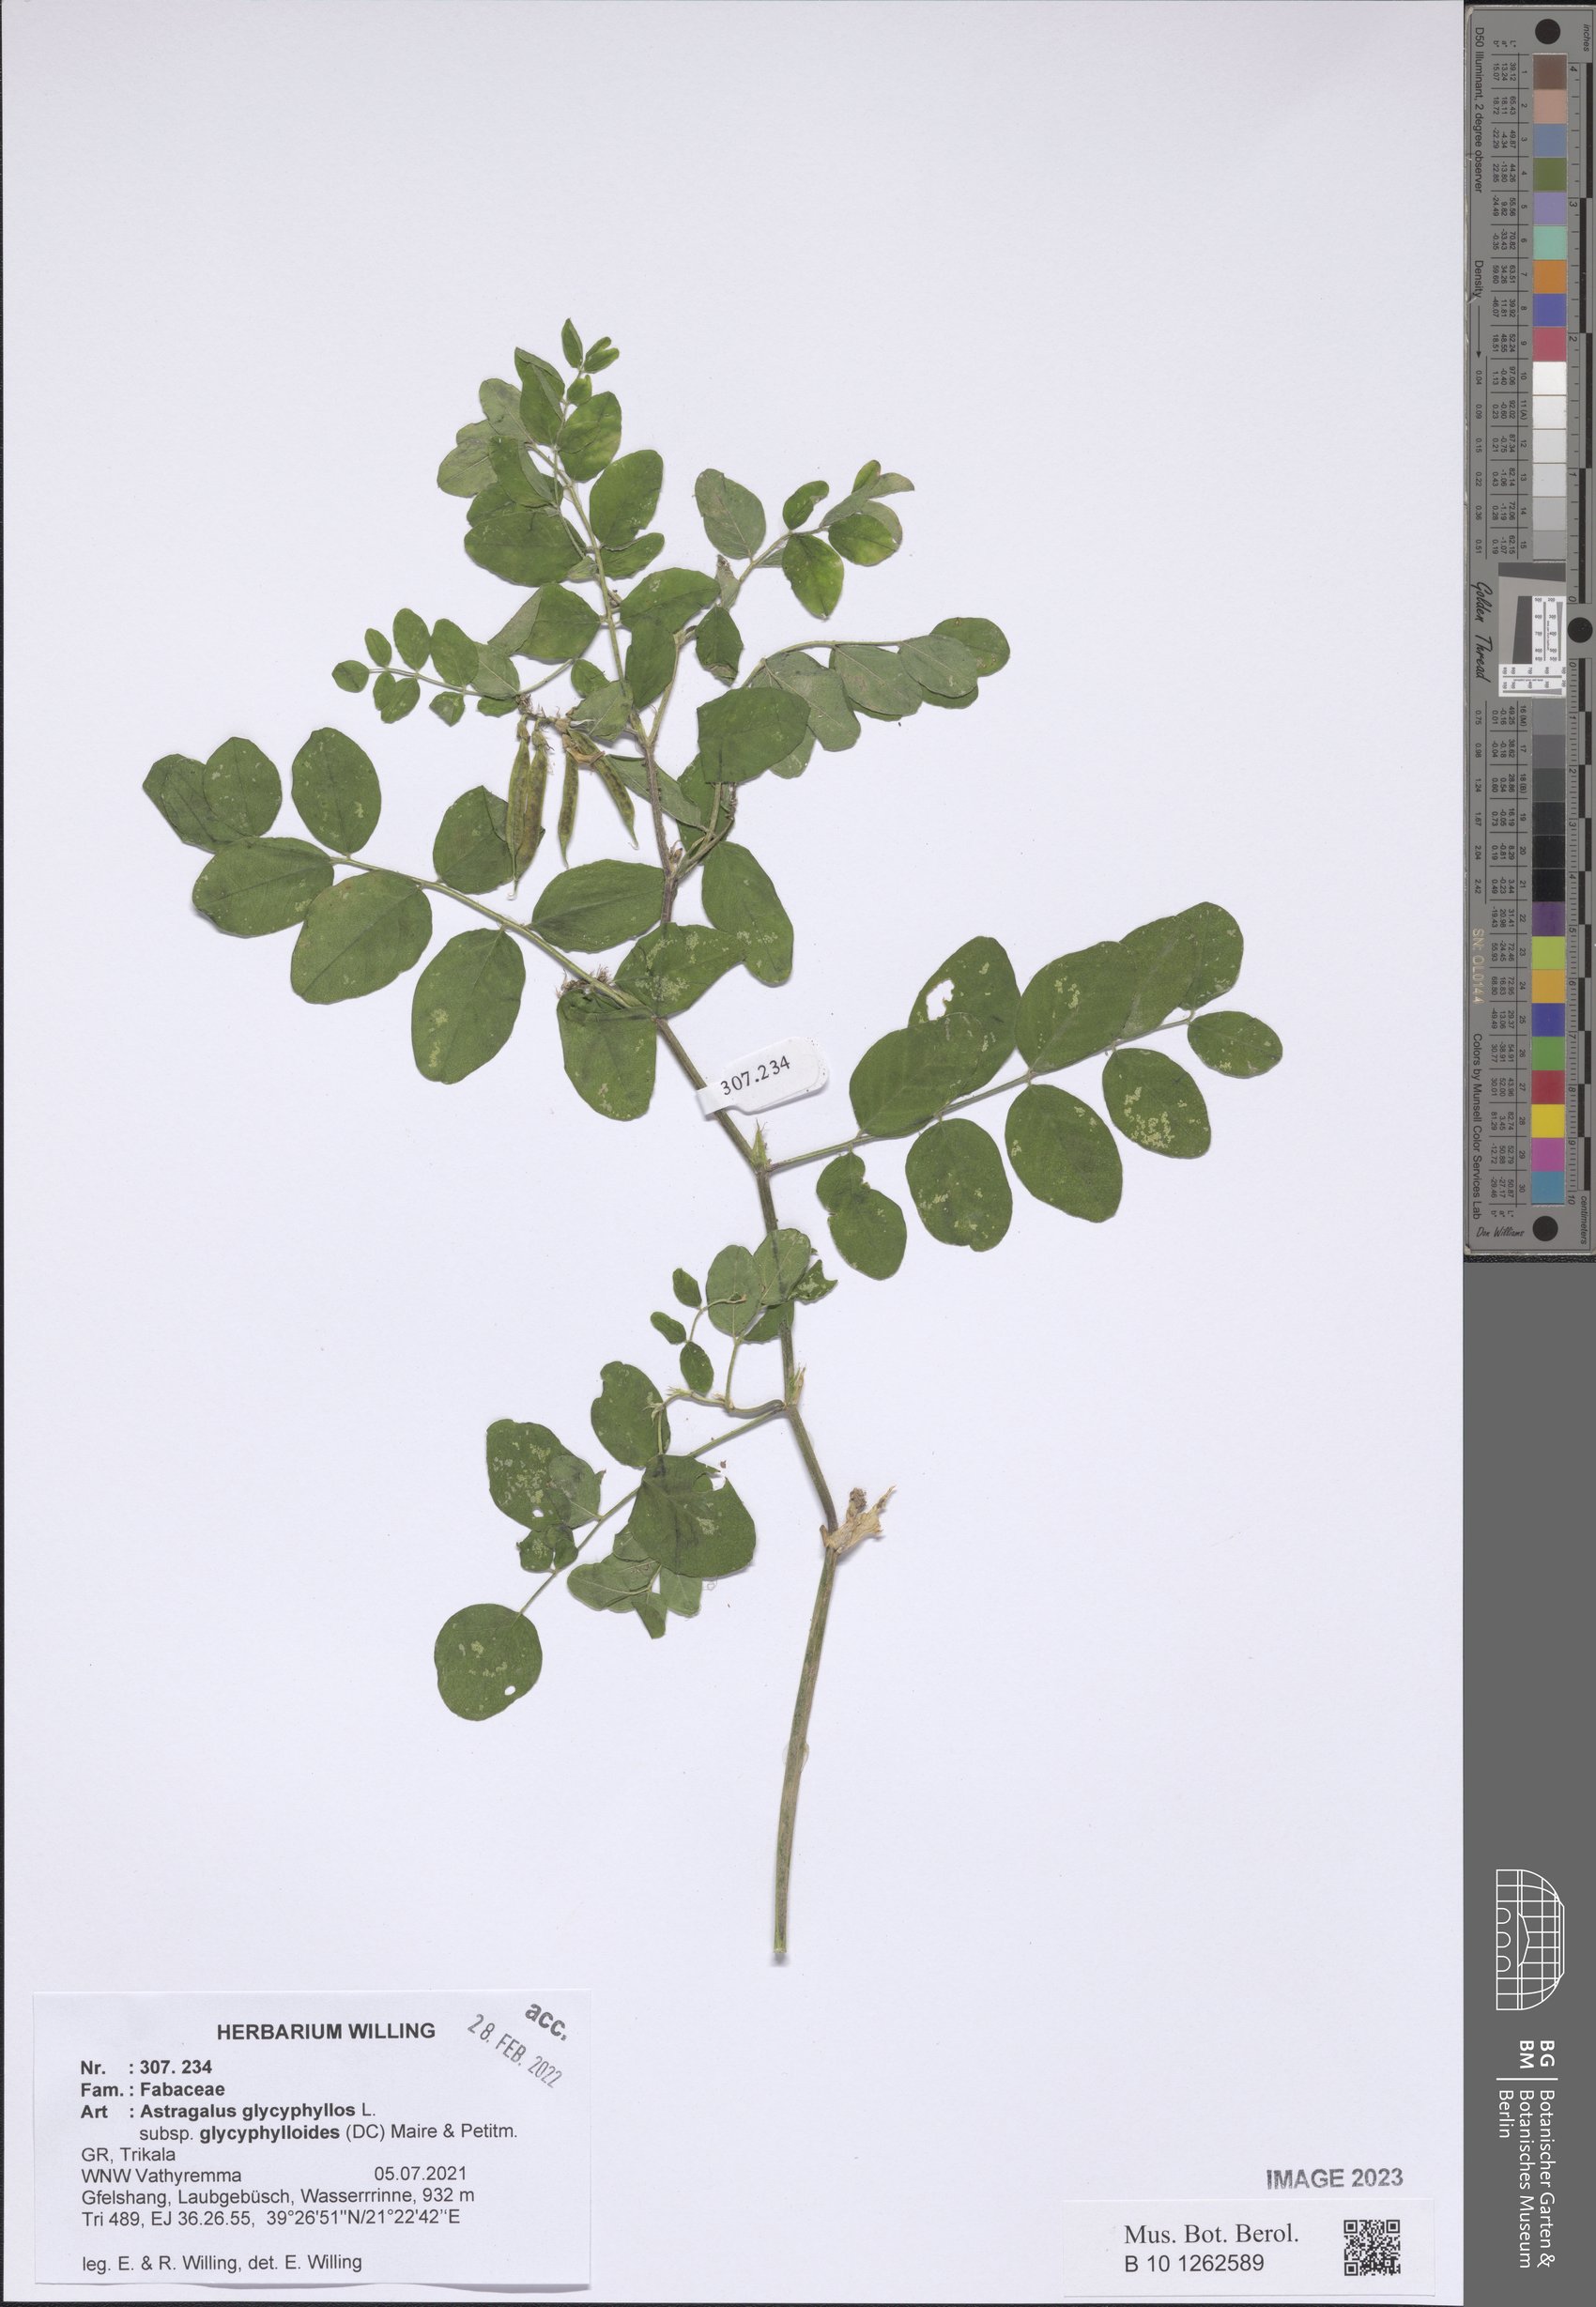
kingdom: Plantae
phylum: Tracheophyta
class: Magnoliopsida
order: Fabales
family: Fabaceae
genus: Astragalus
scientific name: Astragalus glycyphylloides
